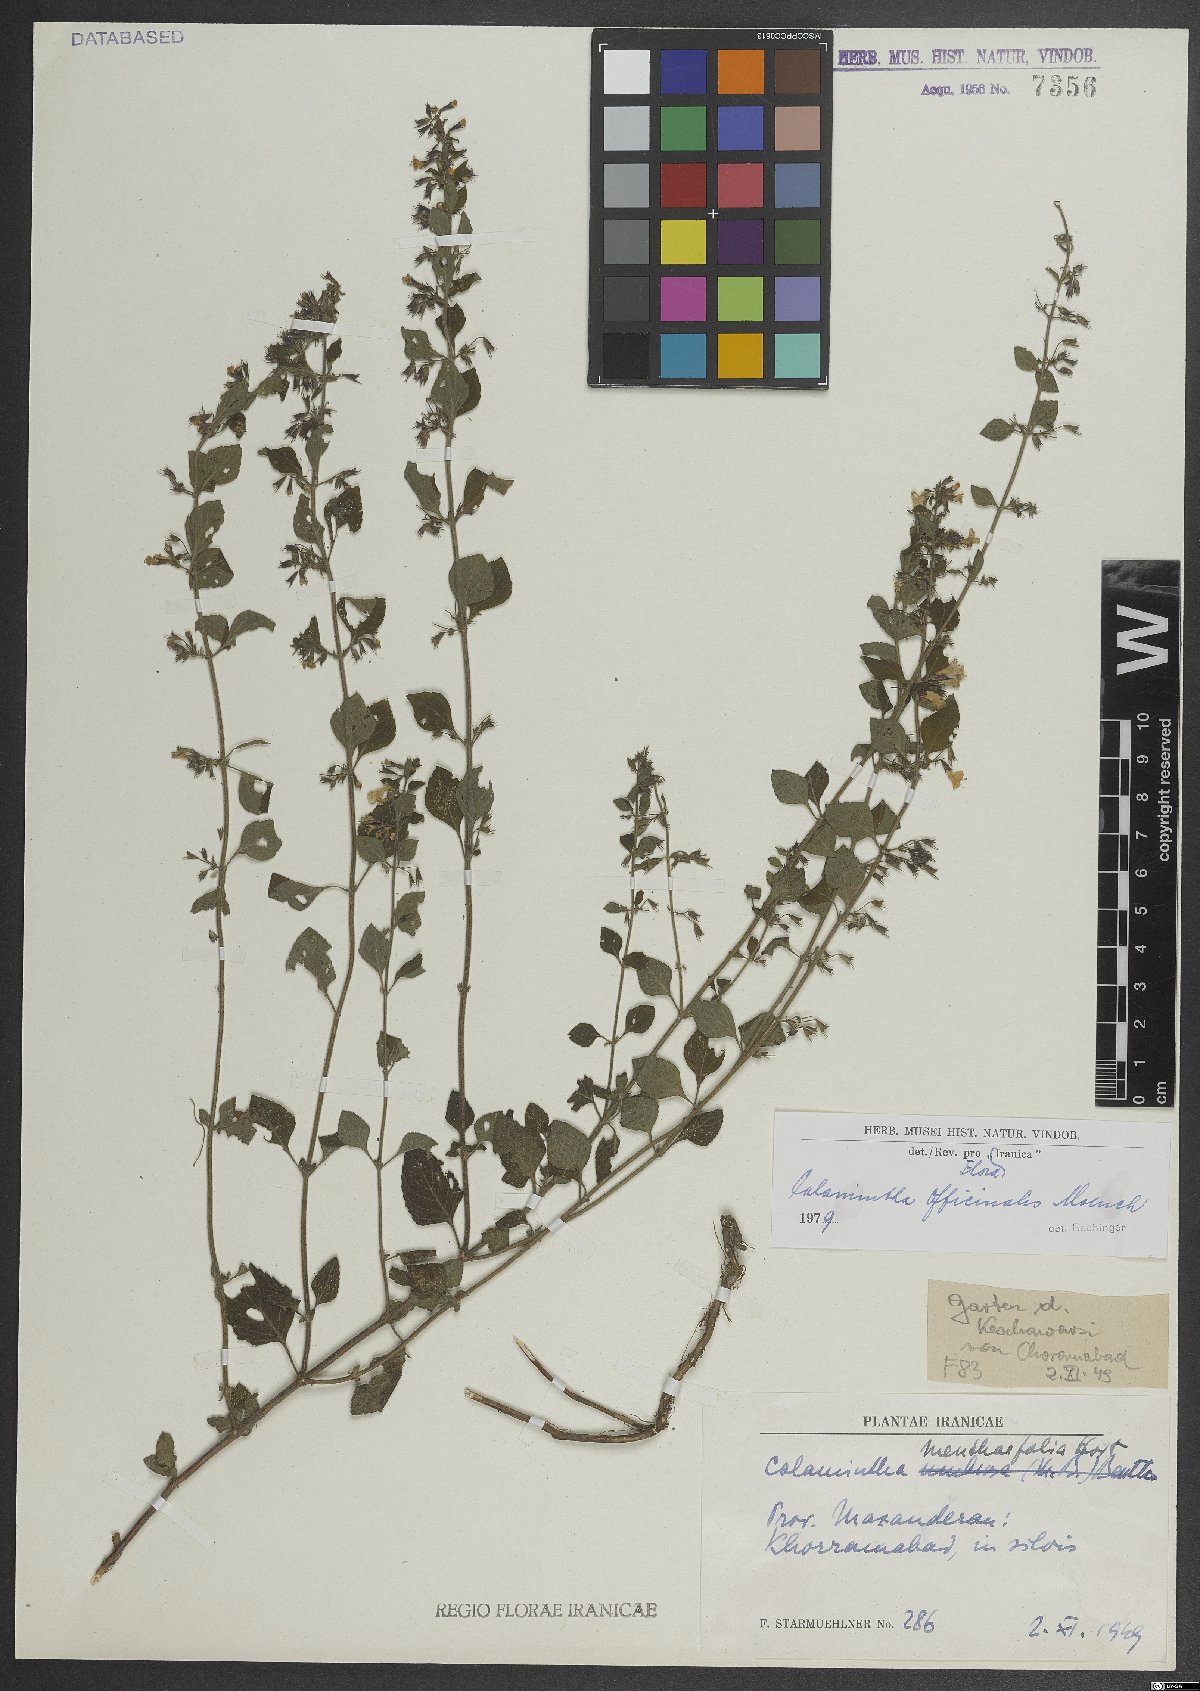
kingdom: Plantae
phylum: Tracheophyta
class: Magnoliopsida
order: Lamiales
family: Lamiaceae
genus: Clinopodium
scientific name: Clinopodium nepeta
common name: Lesser calamint
